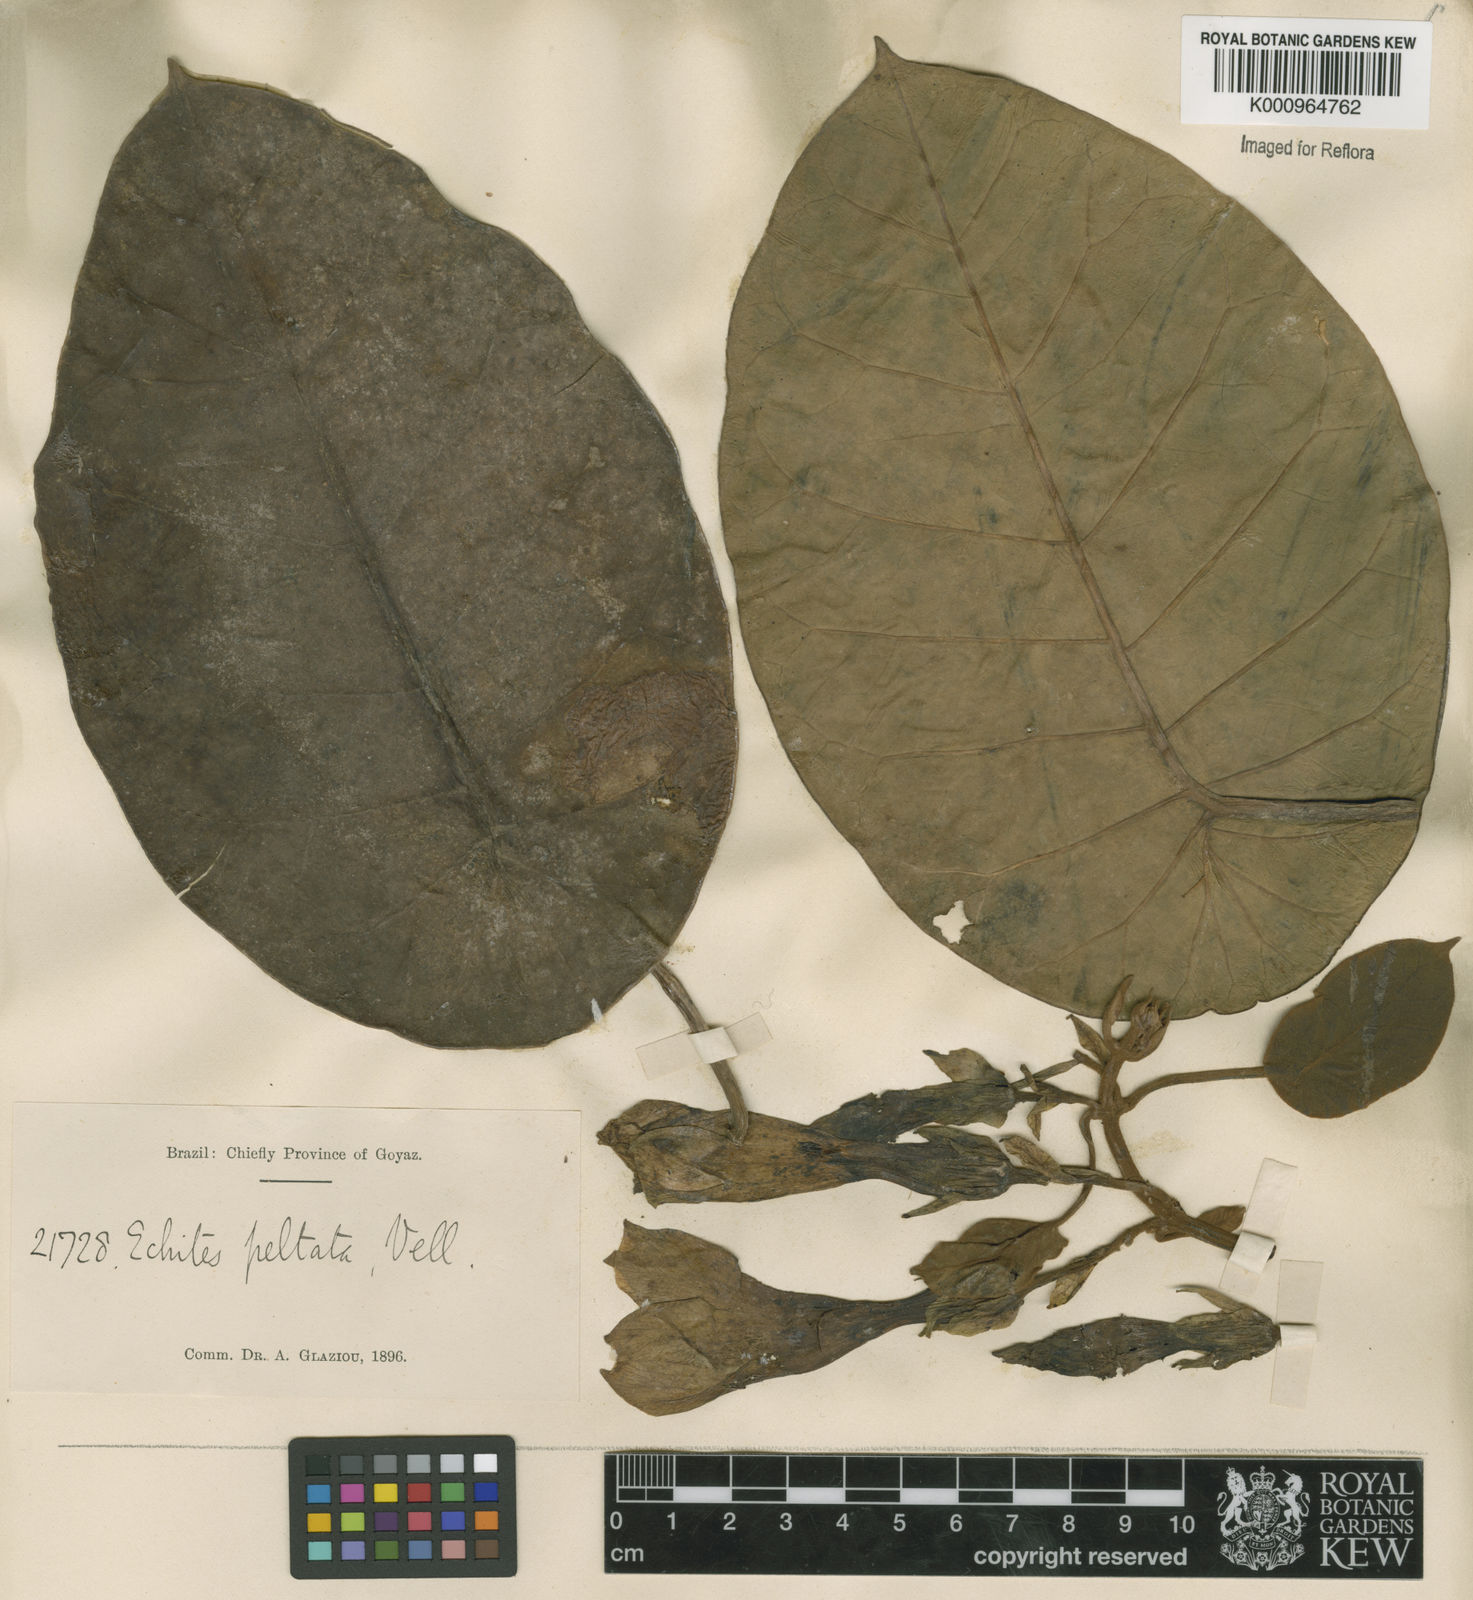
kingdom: Plantae
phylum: Tracheophyta
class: Magnoliopsida
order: Gentianales
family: Apocynaceae
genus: Macropharynx
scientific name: Macropharynx peltata
